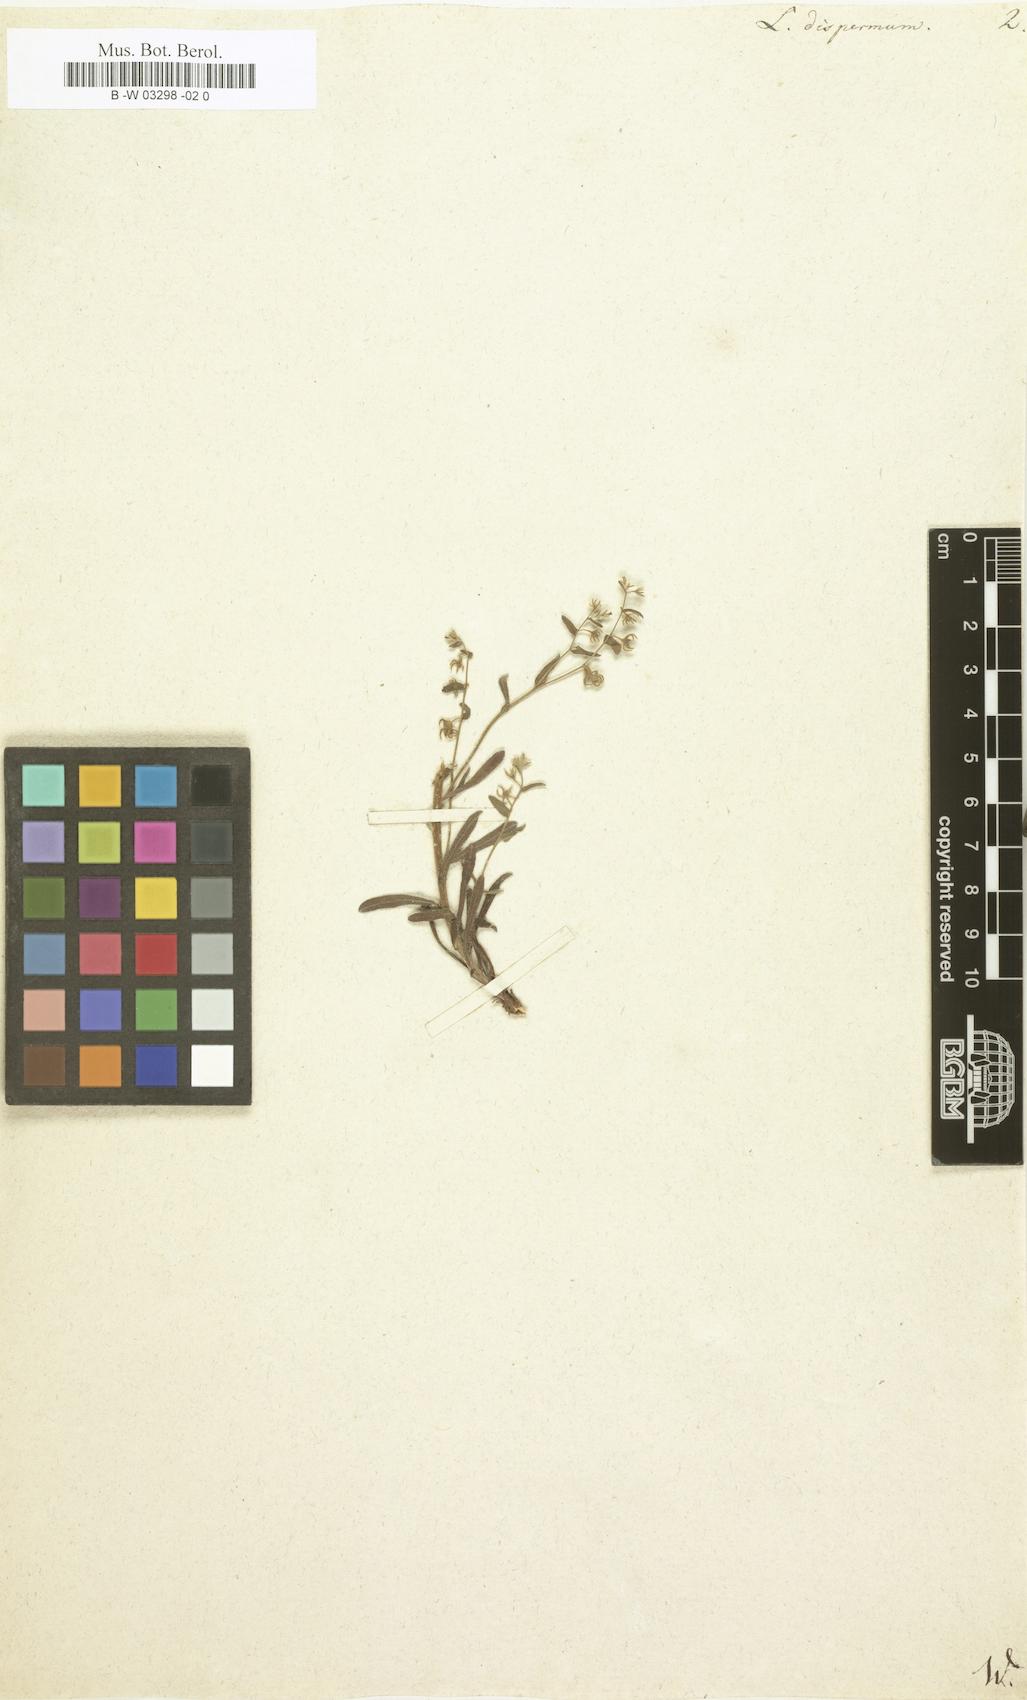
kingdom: Plantae
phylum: Tracheophyta
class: Magnoliopsida
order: Boraginales
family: Boraginaceae
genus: Rochelia
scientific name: Rochelia disperma
